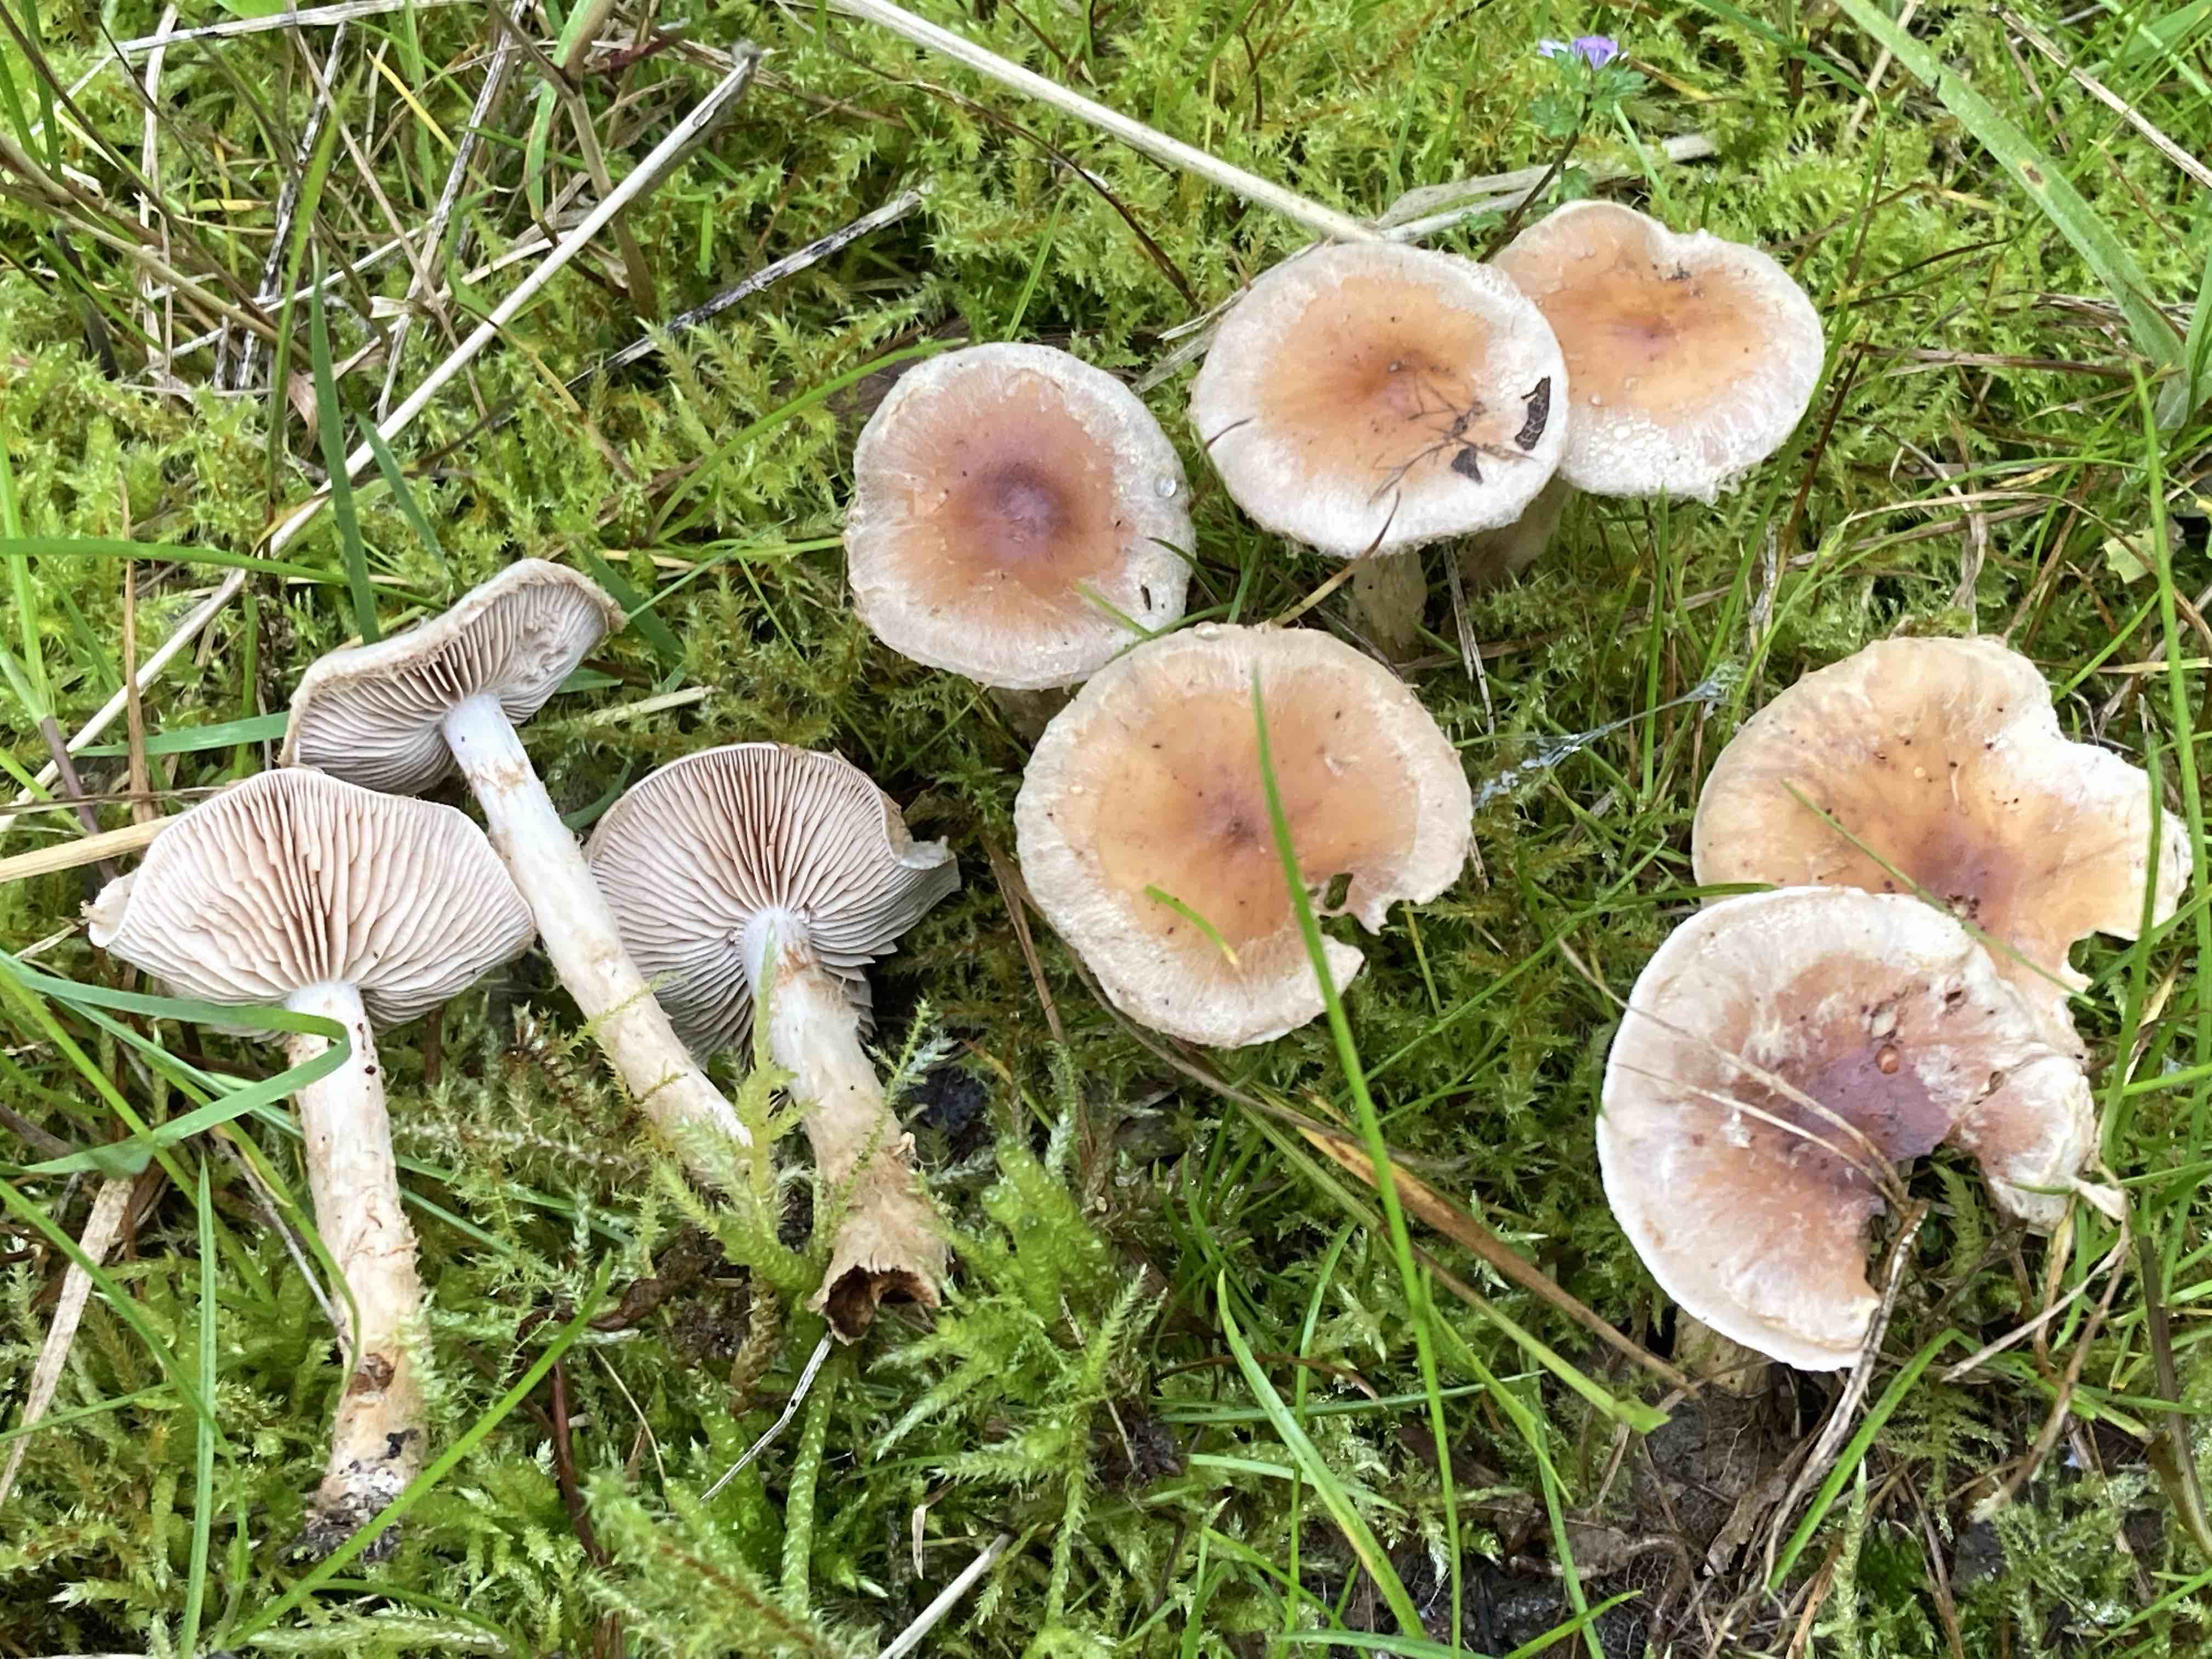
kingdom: Fungi
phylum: Basidiomycota
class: Agaricomycetes
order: Agaricales
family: Hymenogastraceae
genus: Hebeloma
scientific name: Hebeloma mesophaeum
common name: lerbrun tåreblad
